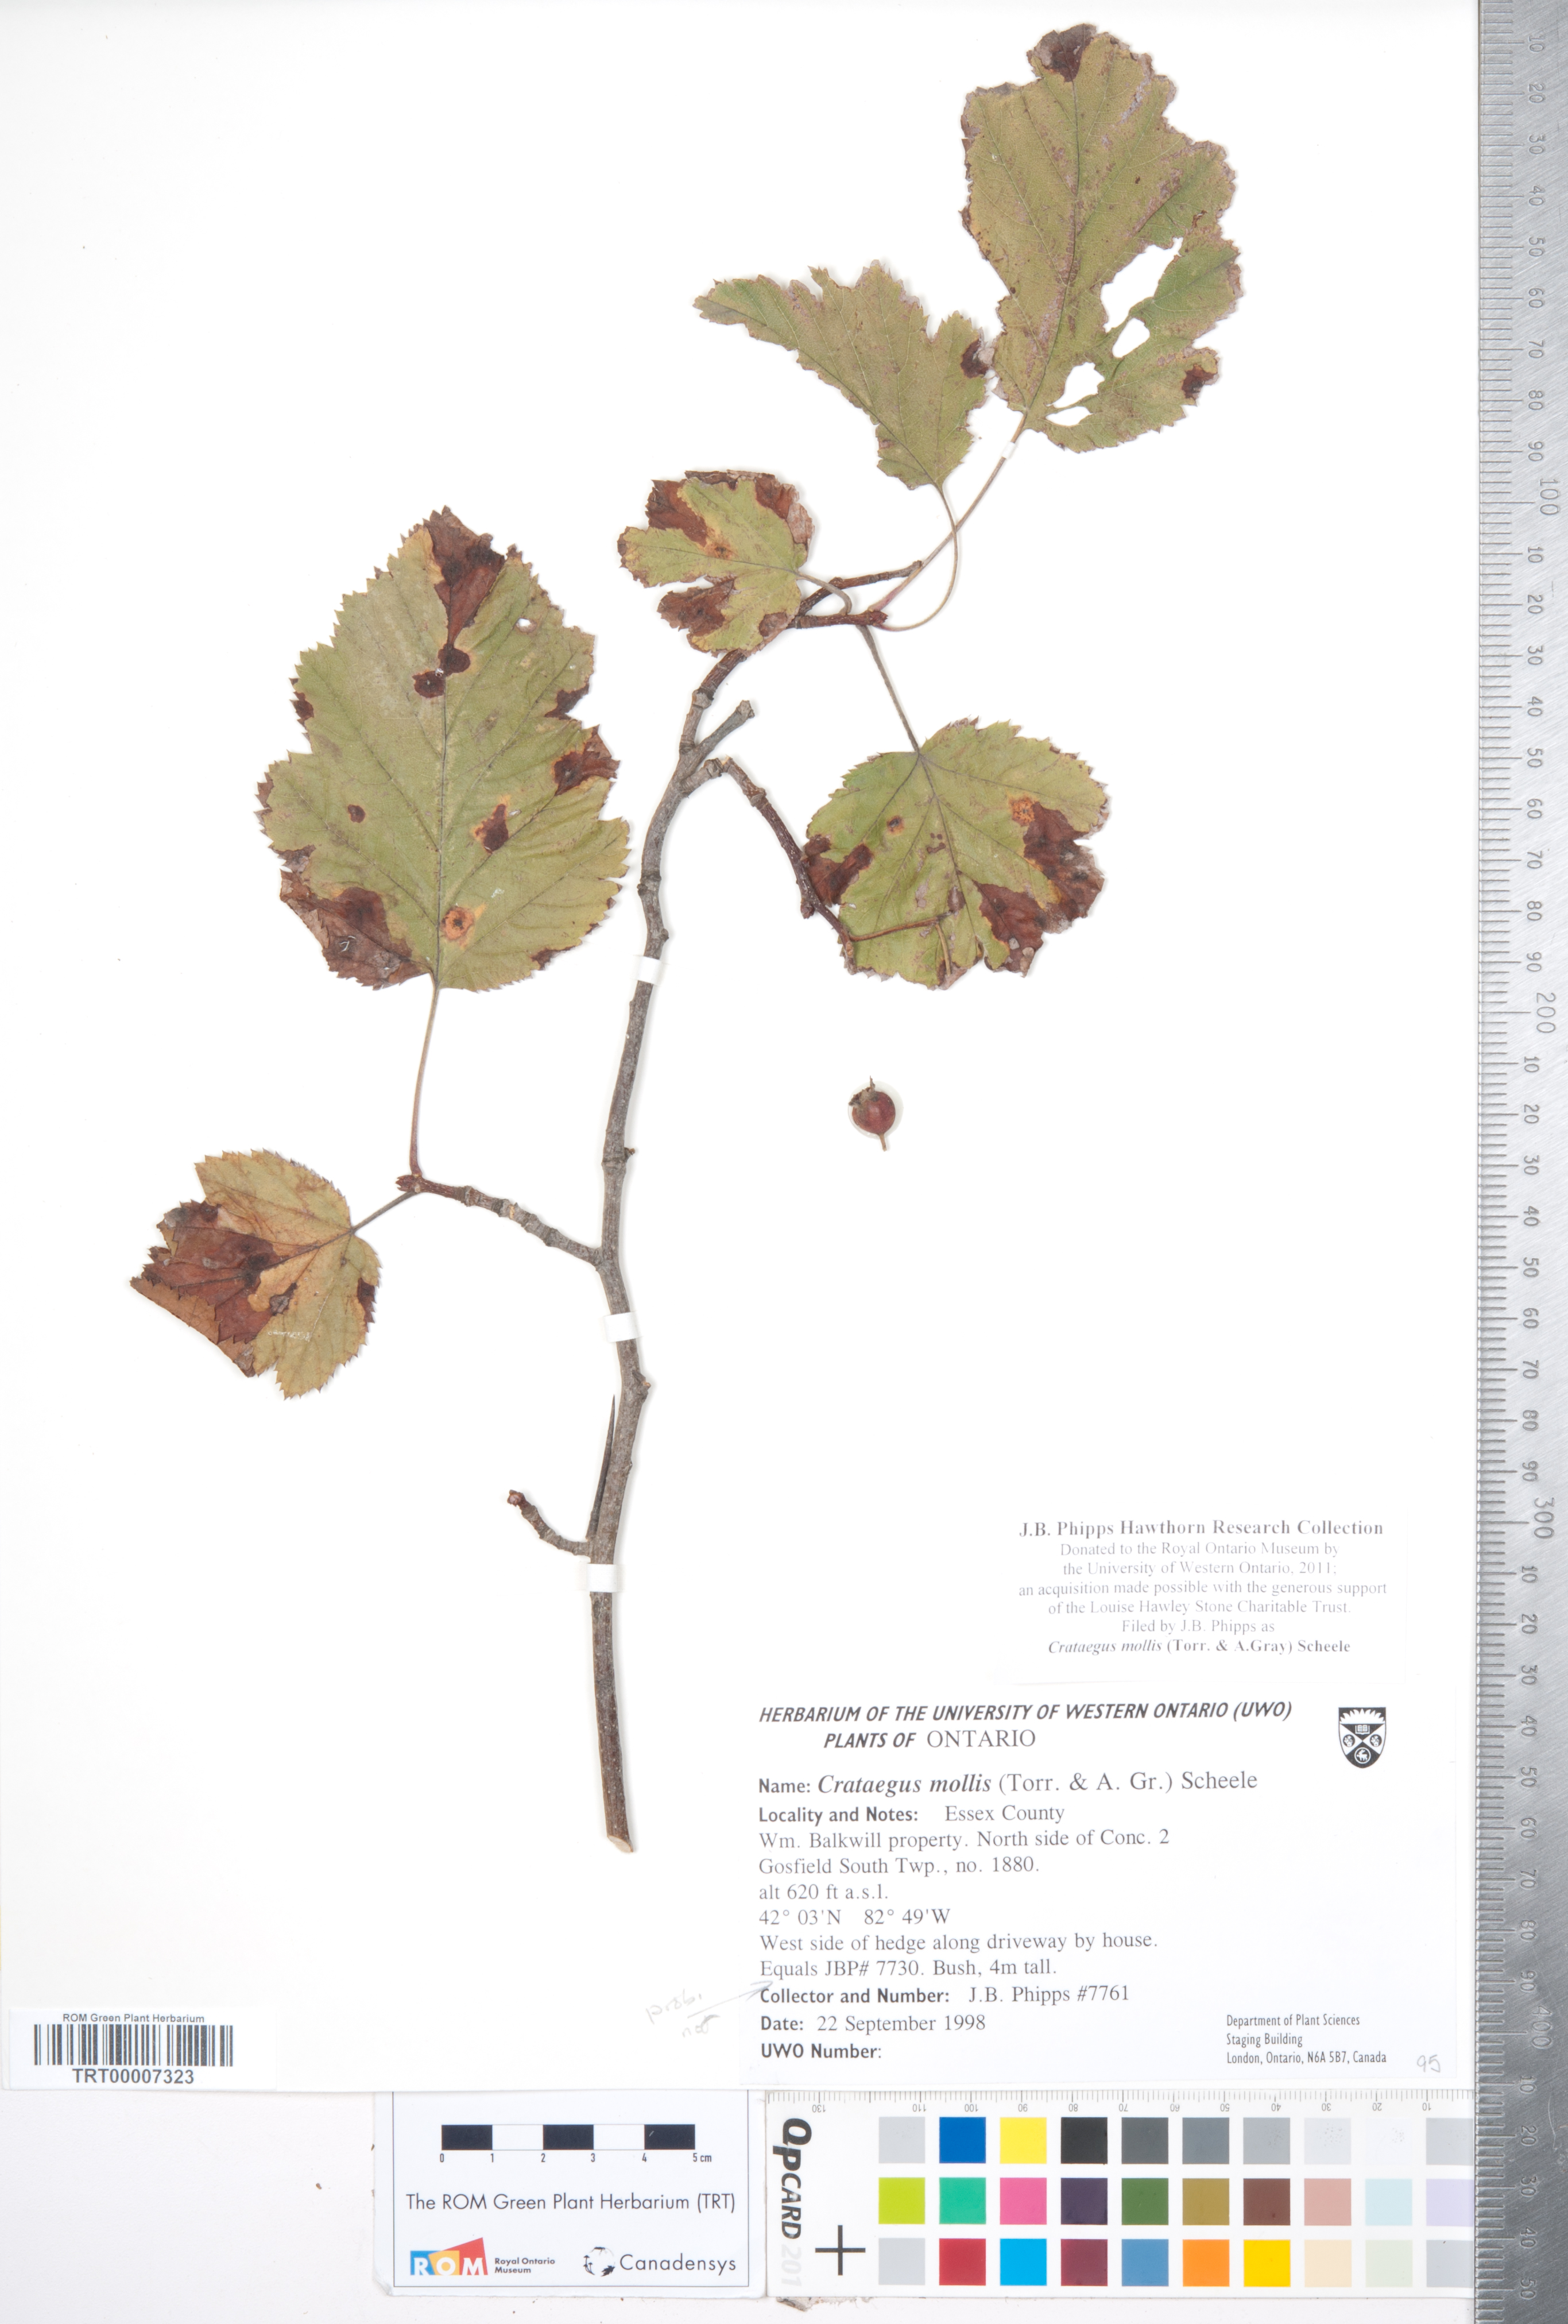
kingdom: Plantae
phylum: Tracheophyta
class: Magnoliopsida
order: Rosales
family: Rosaceae
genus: Crataegus
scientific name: Crataegus mollis
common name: Downy hawthorn
